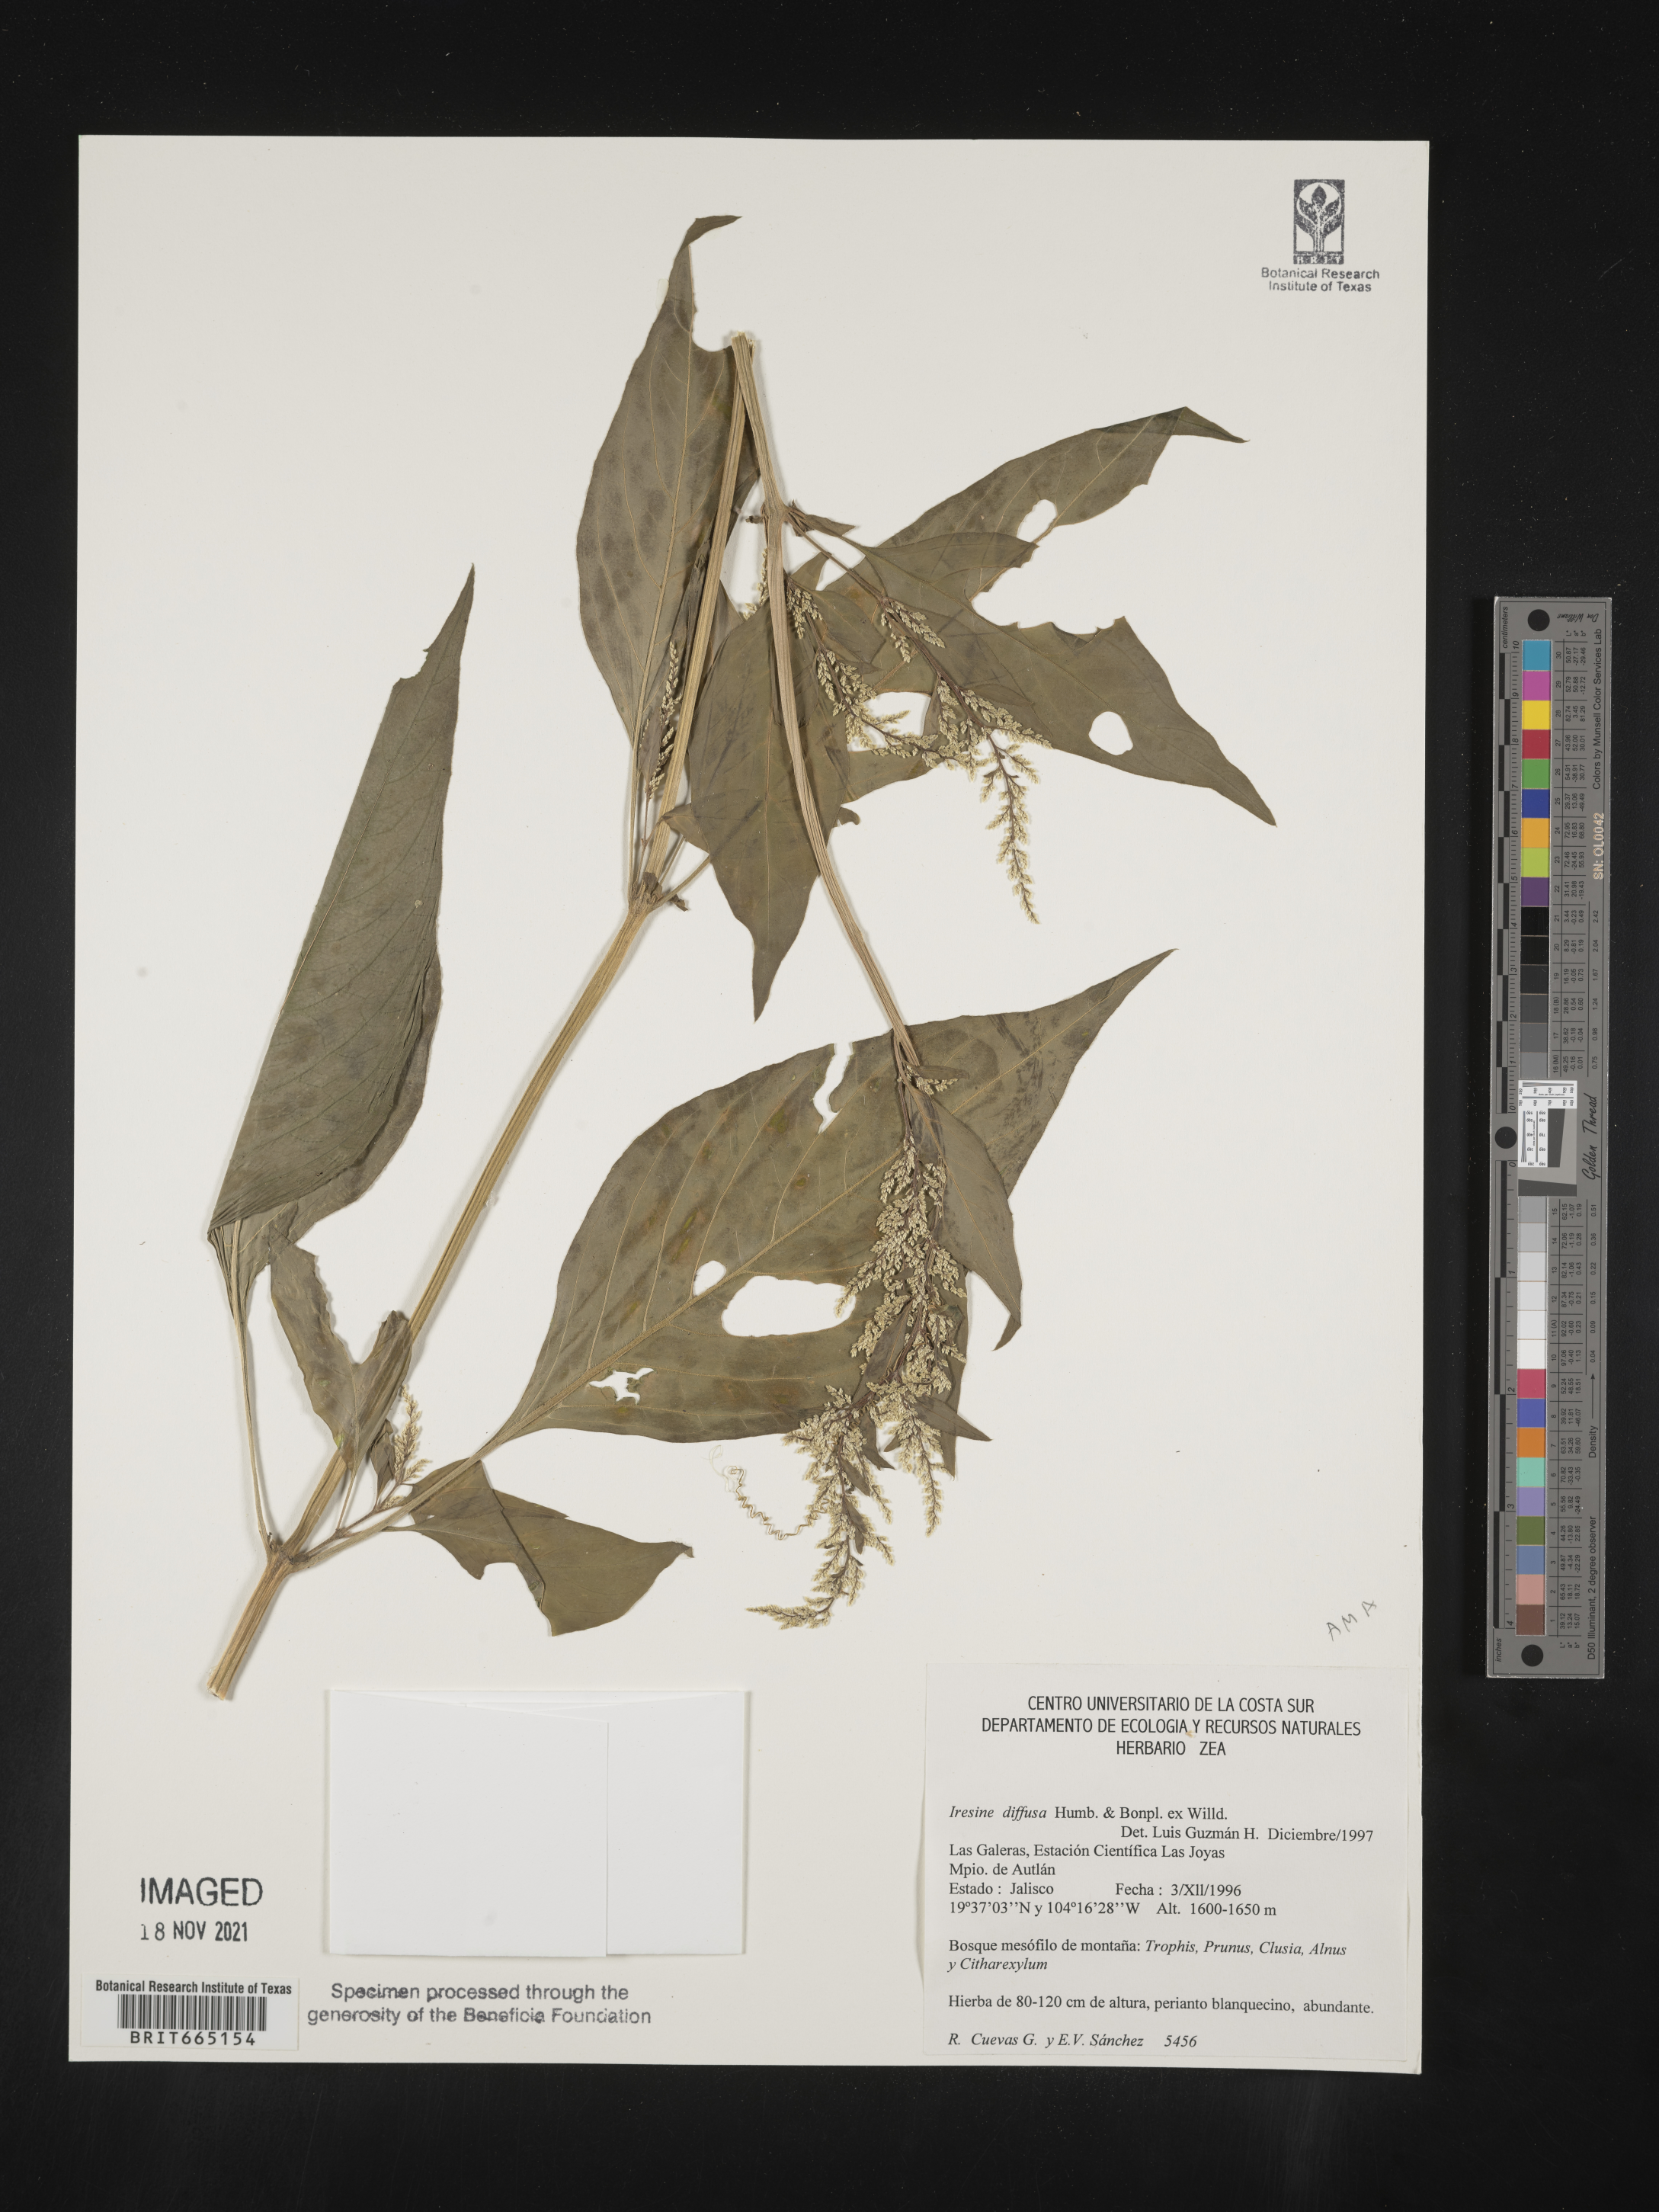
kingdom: Plantae
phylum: Tracheophyta
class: Magnoliopsida
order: Caryophyllales
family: Amaranthaceae
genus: Iresine
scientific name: Iresine
